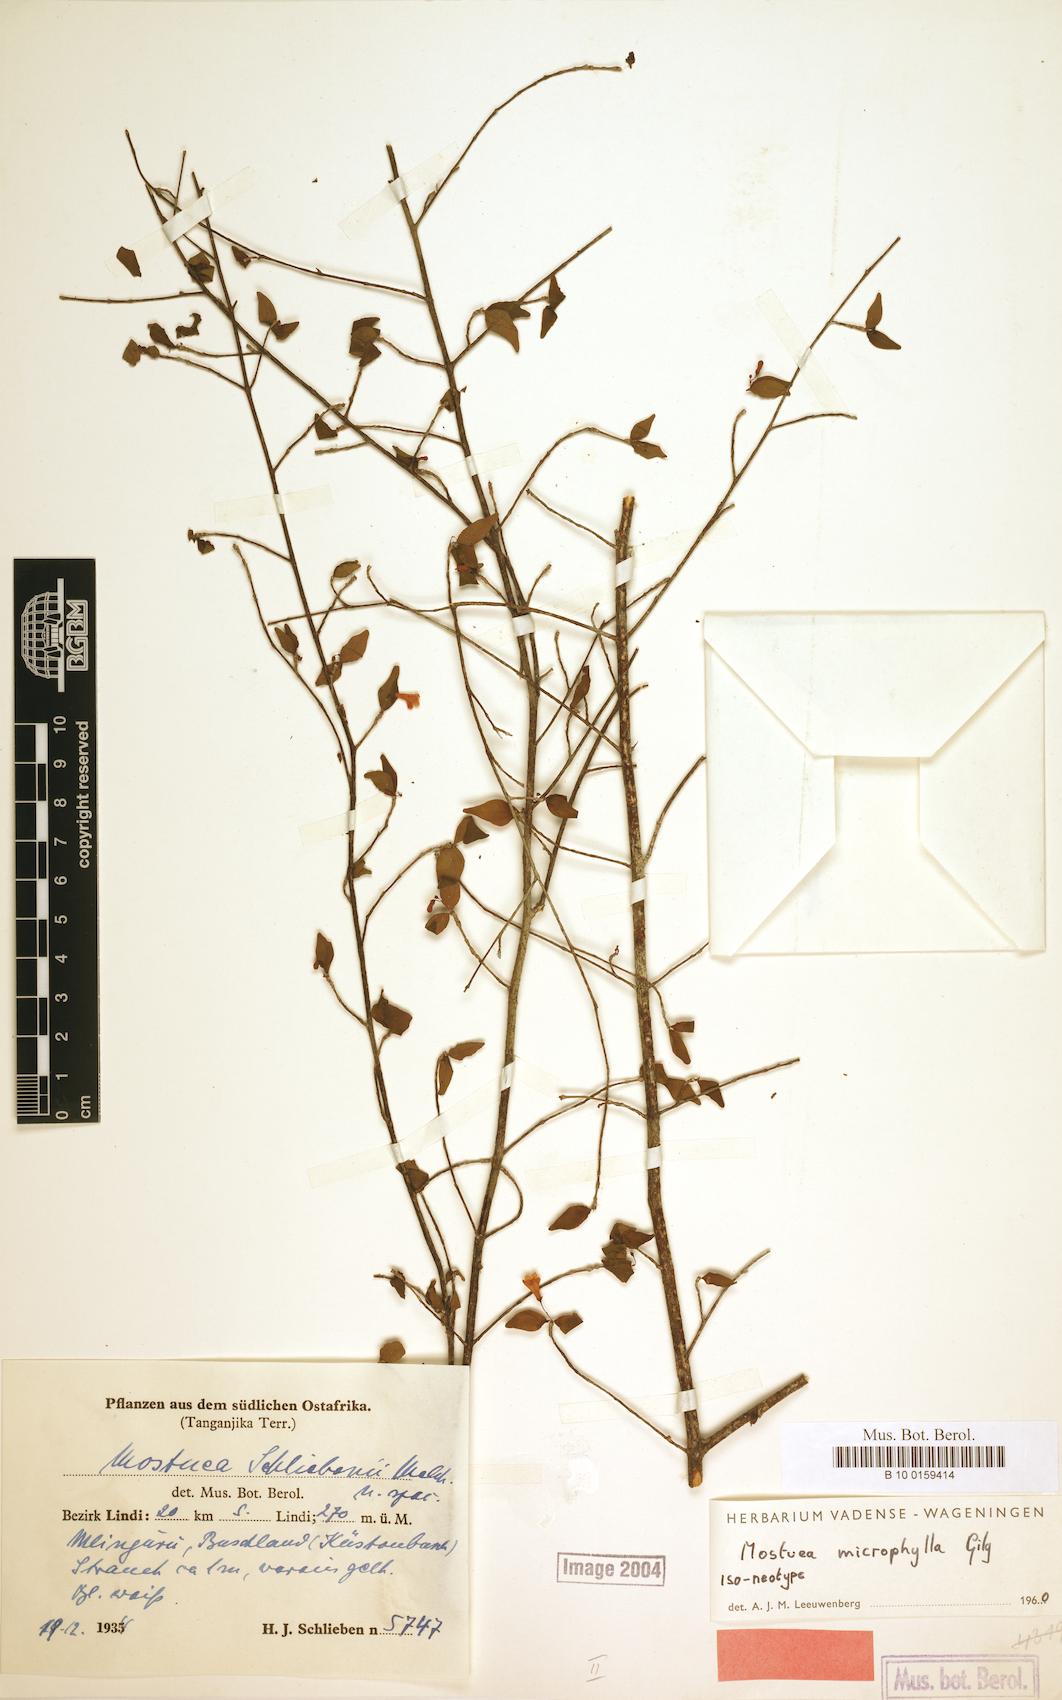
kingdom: Plantae
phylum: Tracheophyta
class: Magnoliopsida
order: Gentianales
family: Gelsemiaceae
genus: Mostuea
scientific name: Mostuea microphylla
